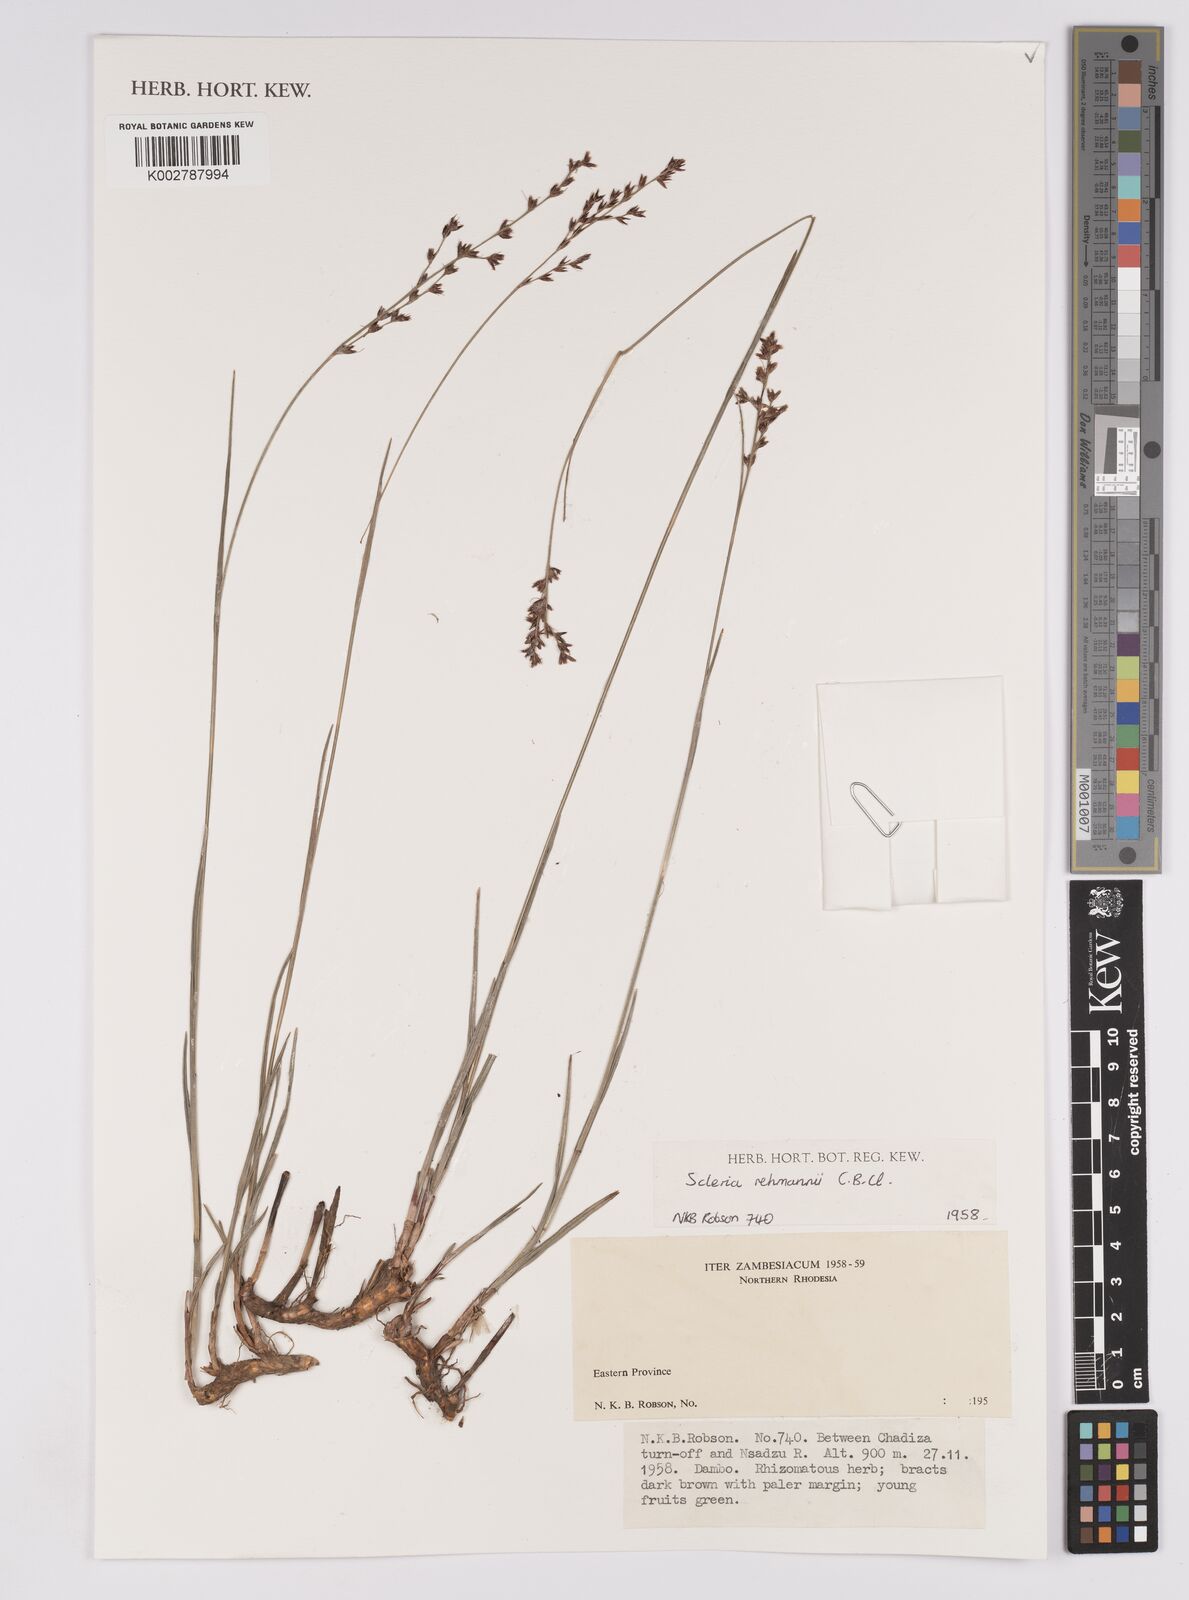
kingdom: Plantae
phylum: Tracheophyta
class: Liliopsida
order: Poales
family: Cyperaceae
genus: Scleria
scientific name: Scleria rehmannii
